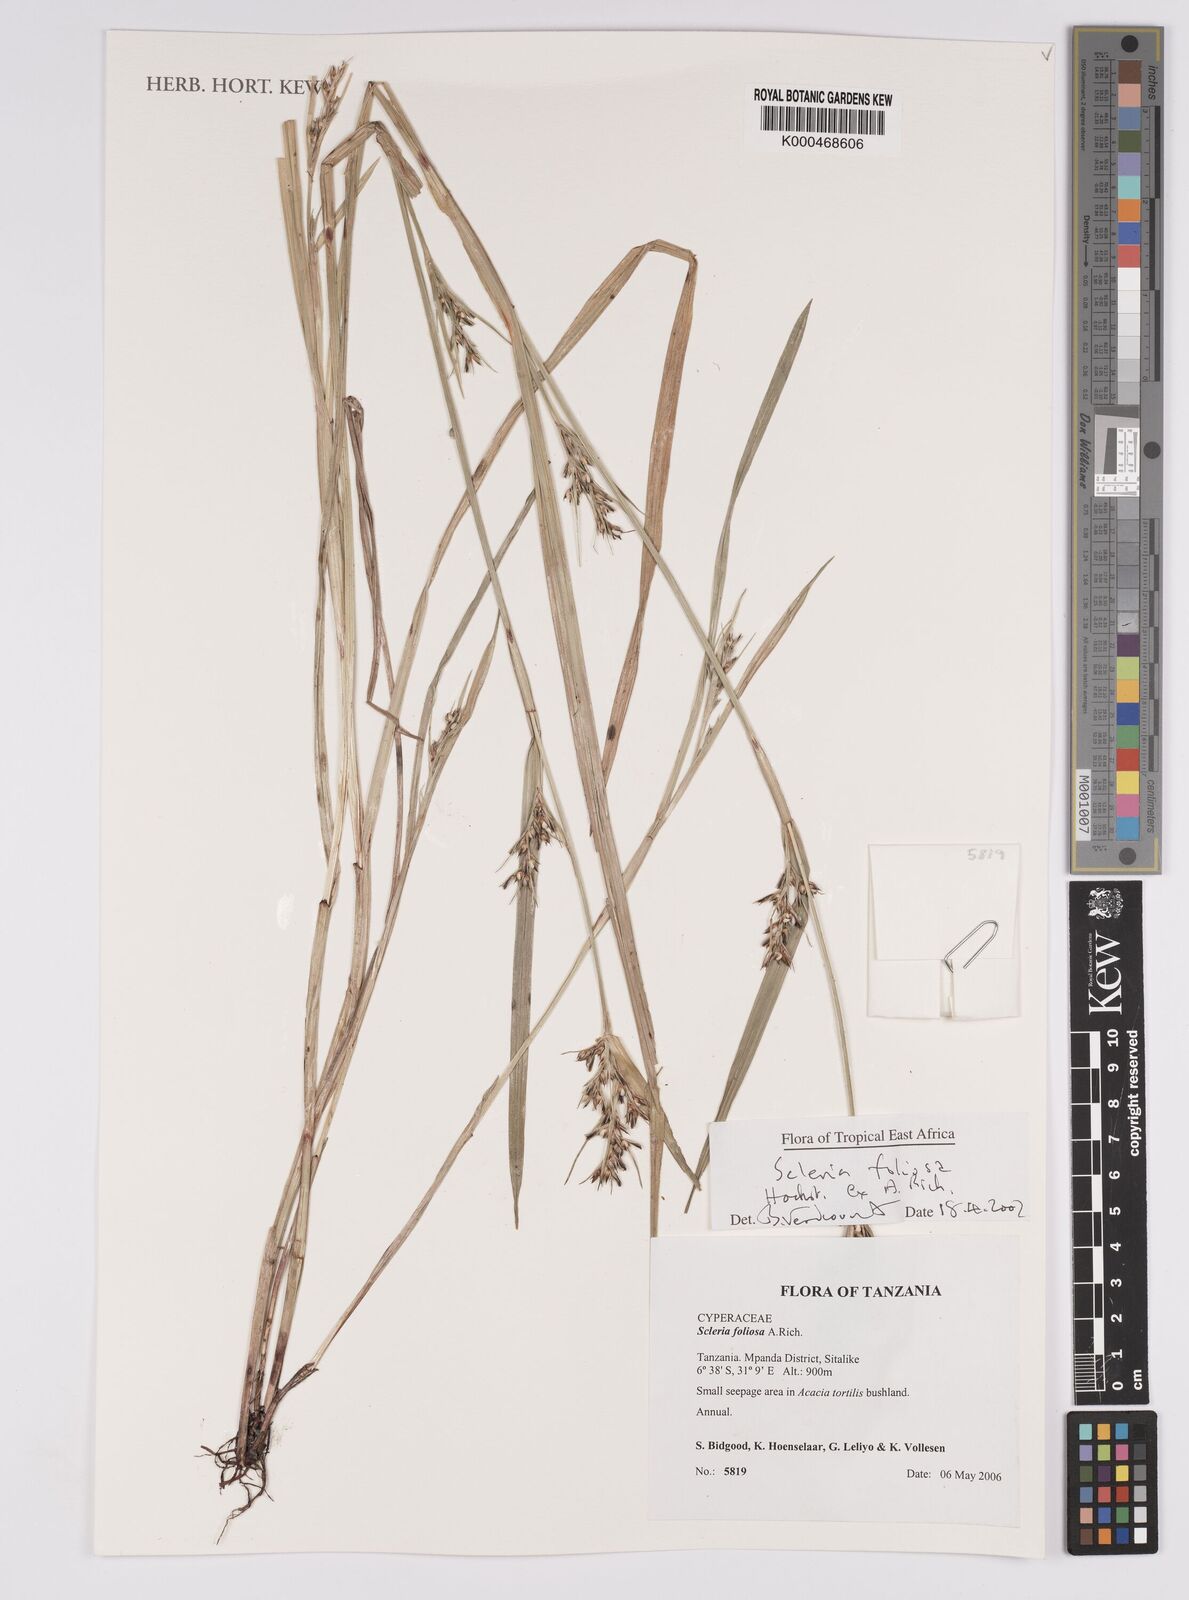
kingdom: Plantae
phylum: Tracheophyta
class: Liliopsida
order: Poales
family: Cyperaceae
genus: Scleria
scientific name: Scleria foliosa
